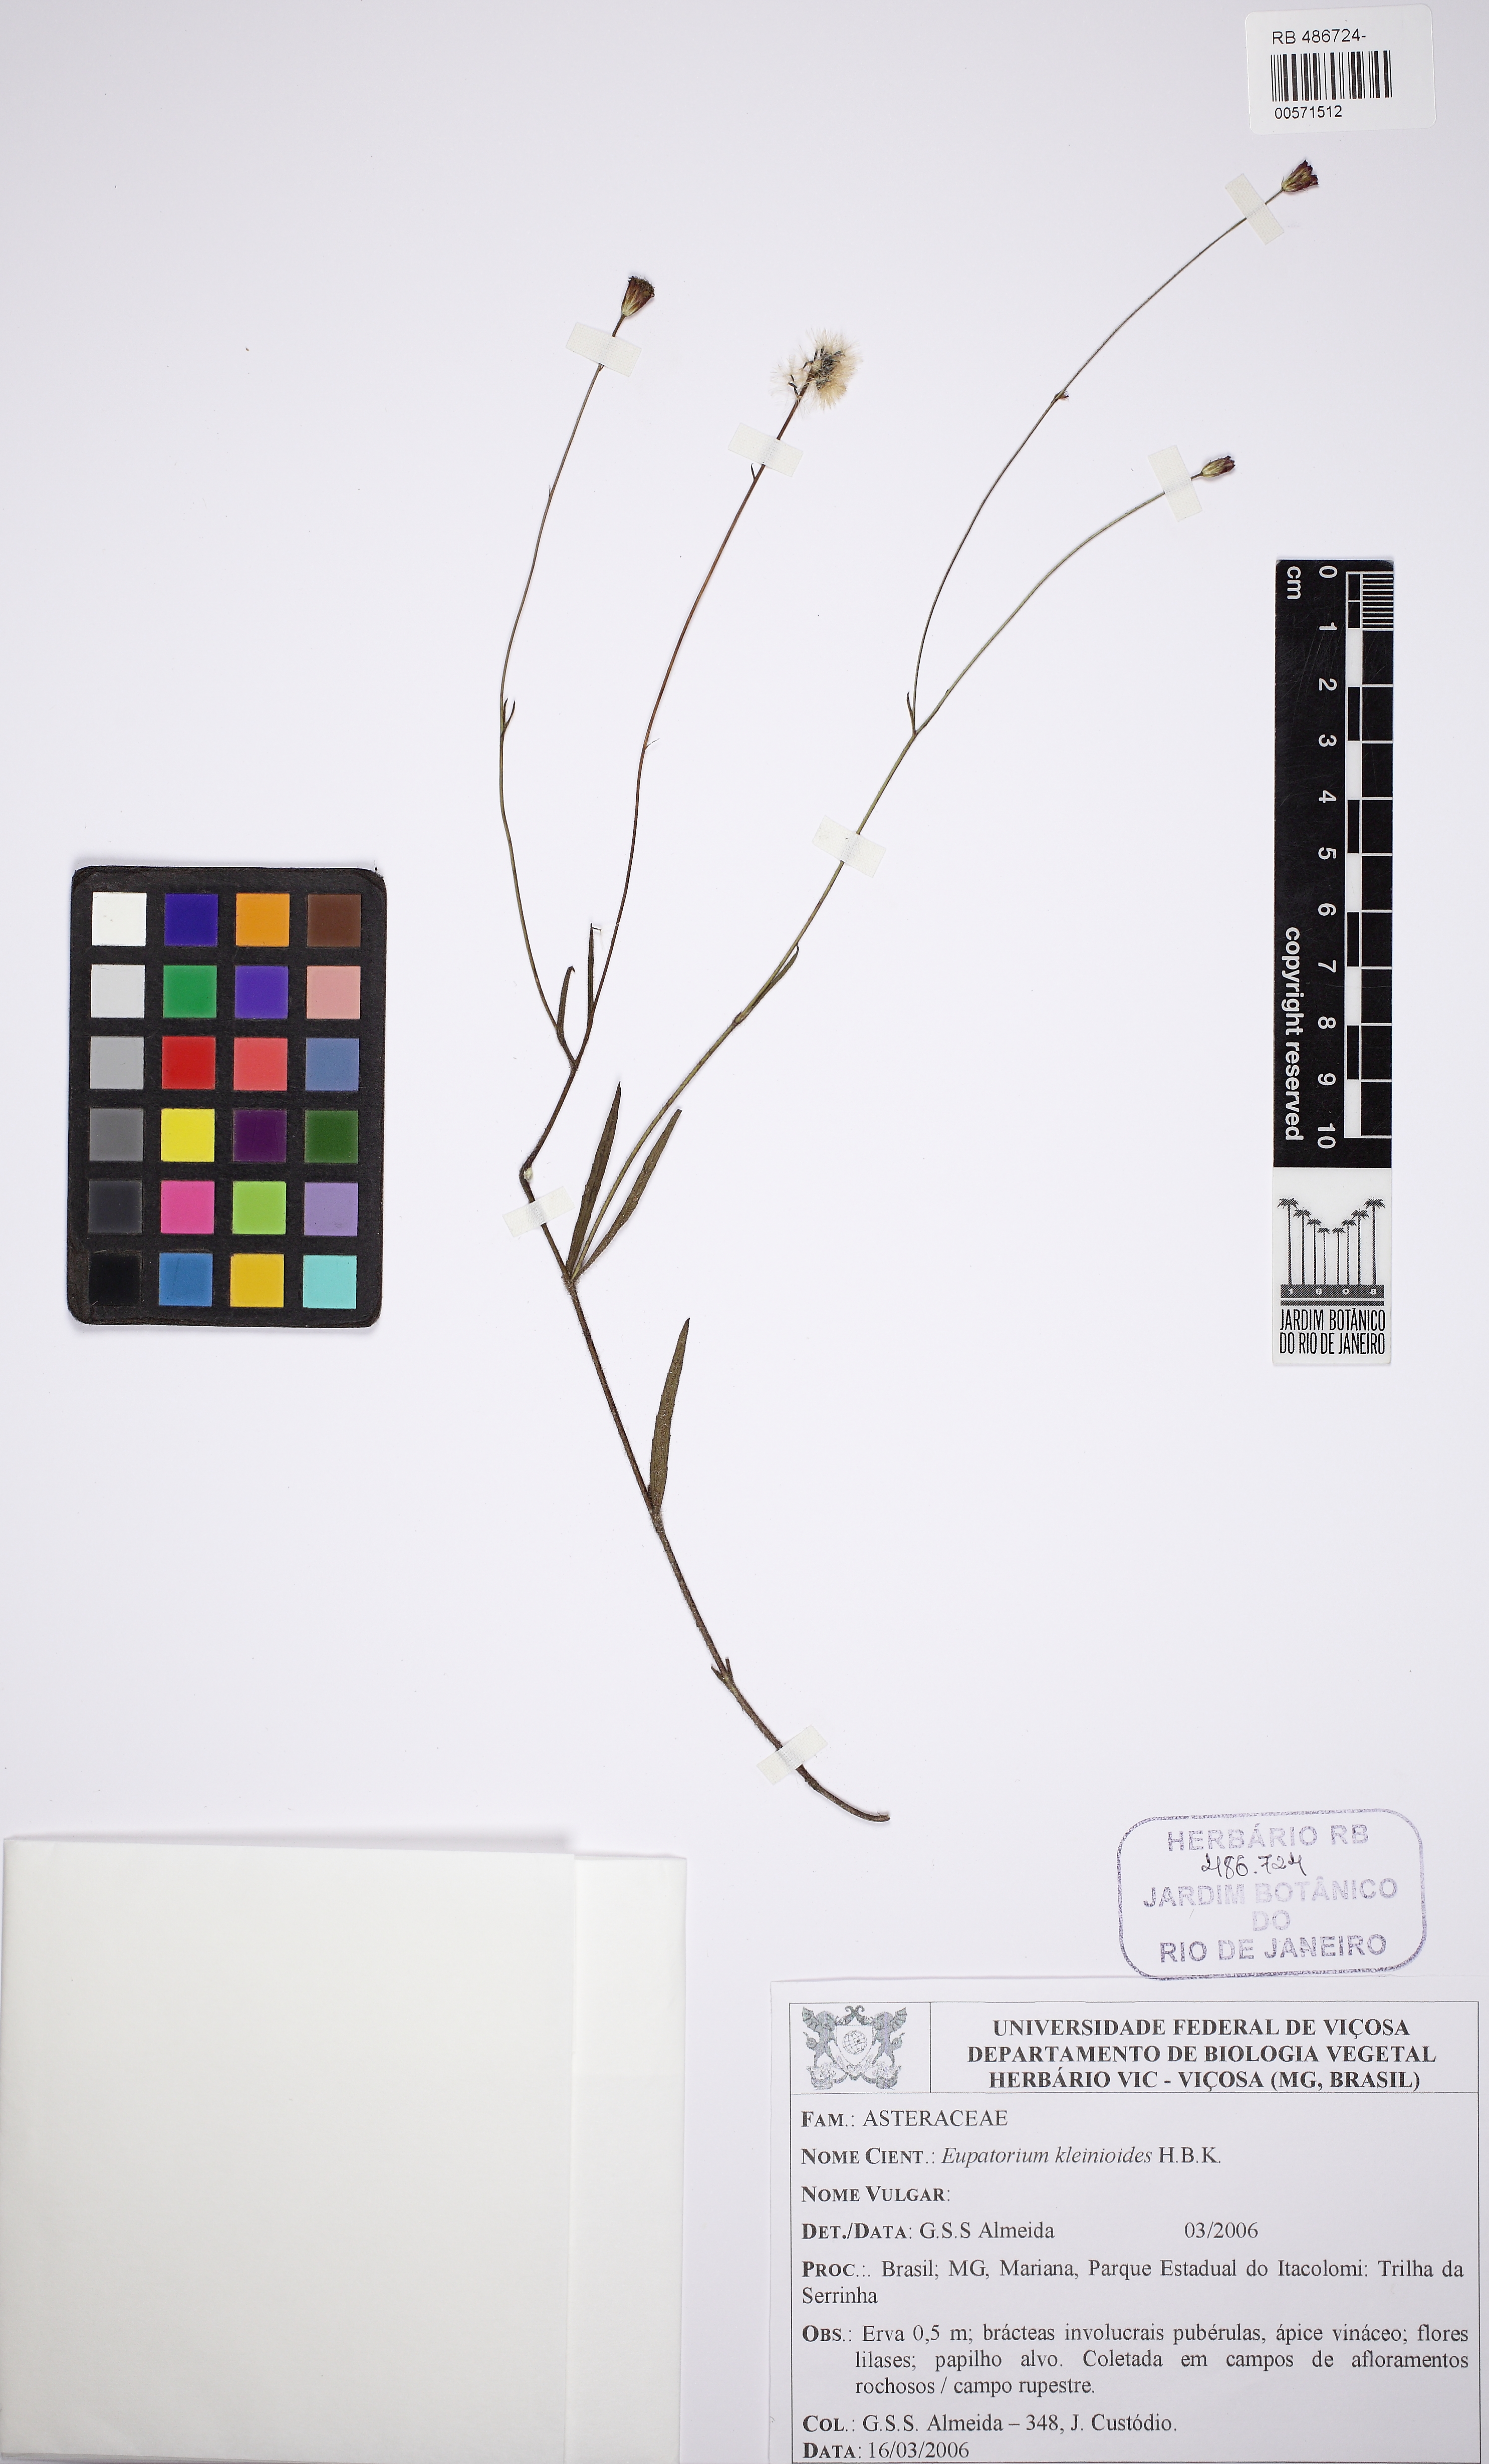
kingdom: Plantae
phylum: Tracheophyta
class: Magnoliopsida
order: Asterales
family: Asteraceae
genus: Praxelis
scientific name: Praxelis kleinioides
